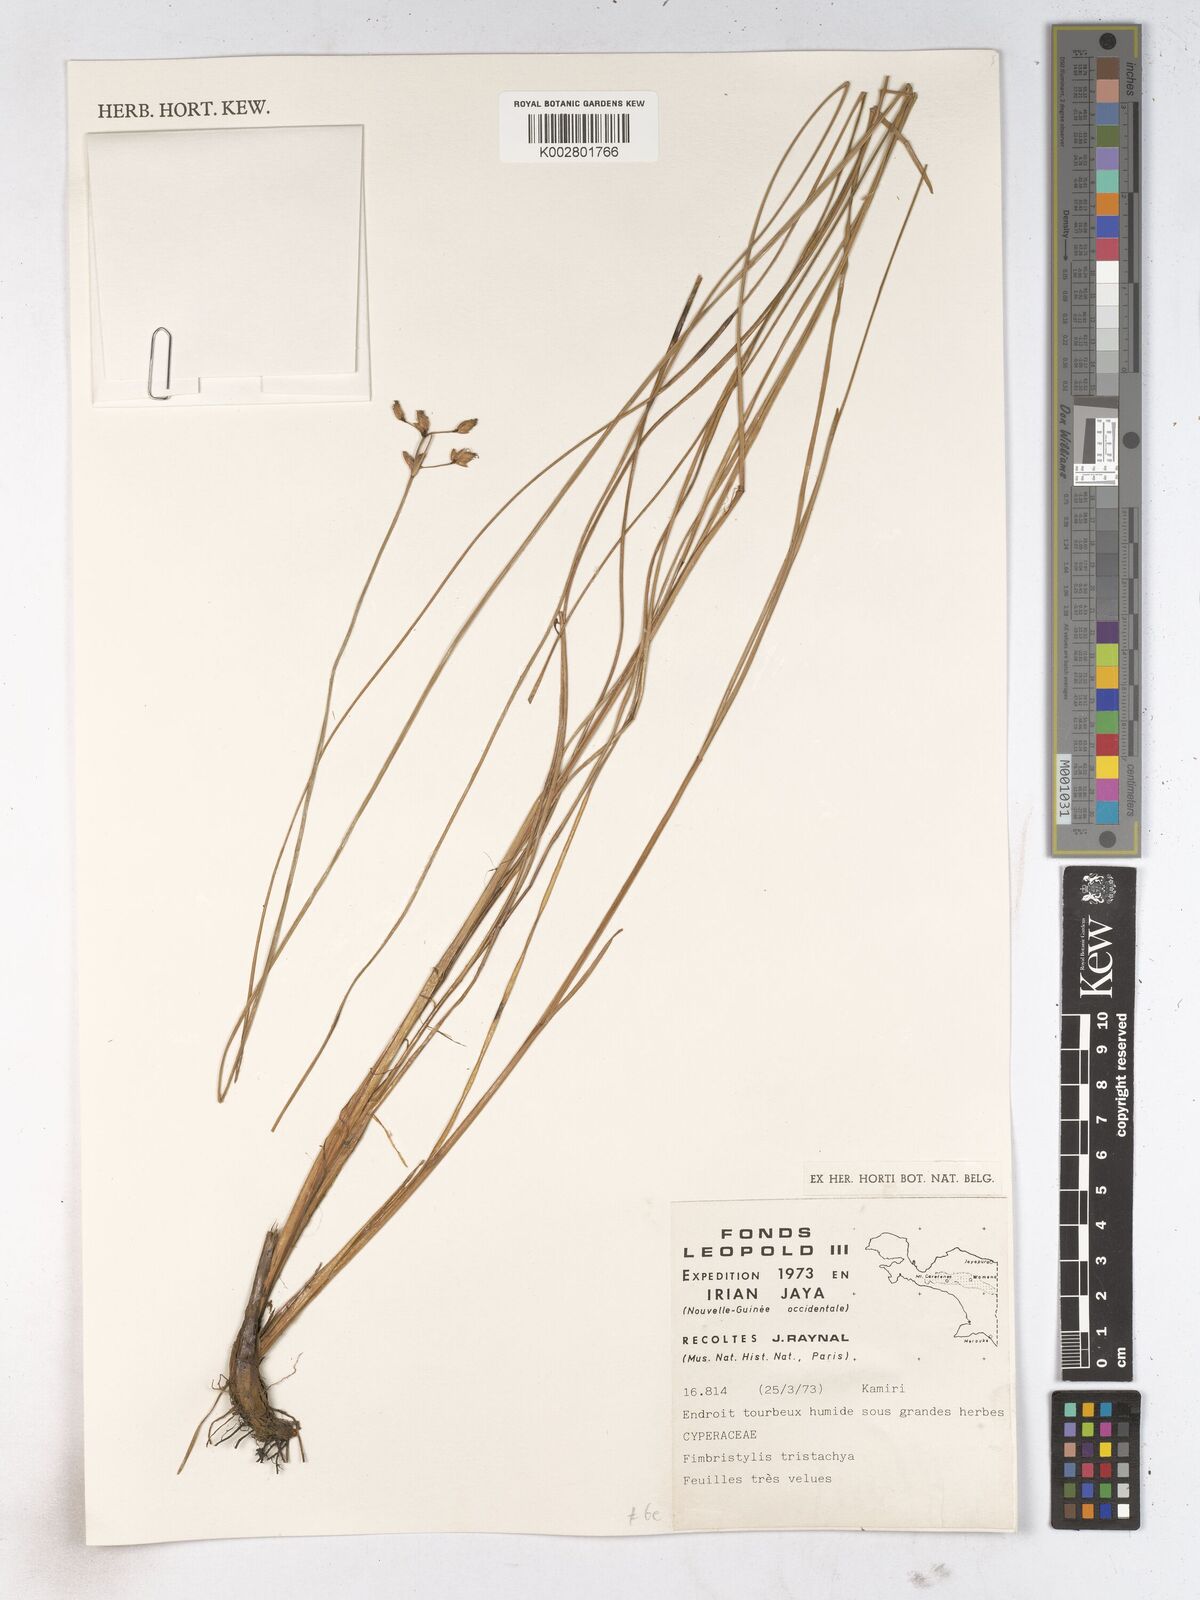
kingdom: Plantae
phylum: Tracheophyta
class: Liliopsida
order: Poales
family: Cyperaceae
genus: Fimbristylis
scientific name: Fimbristylis tristachya
